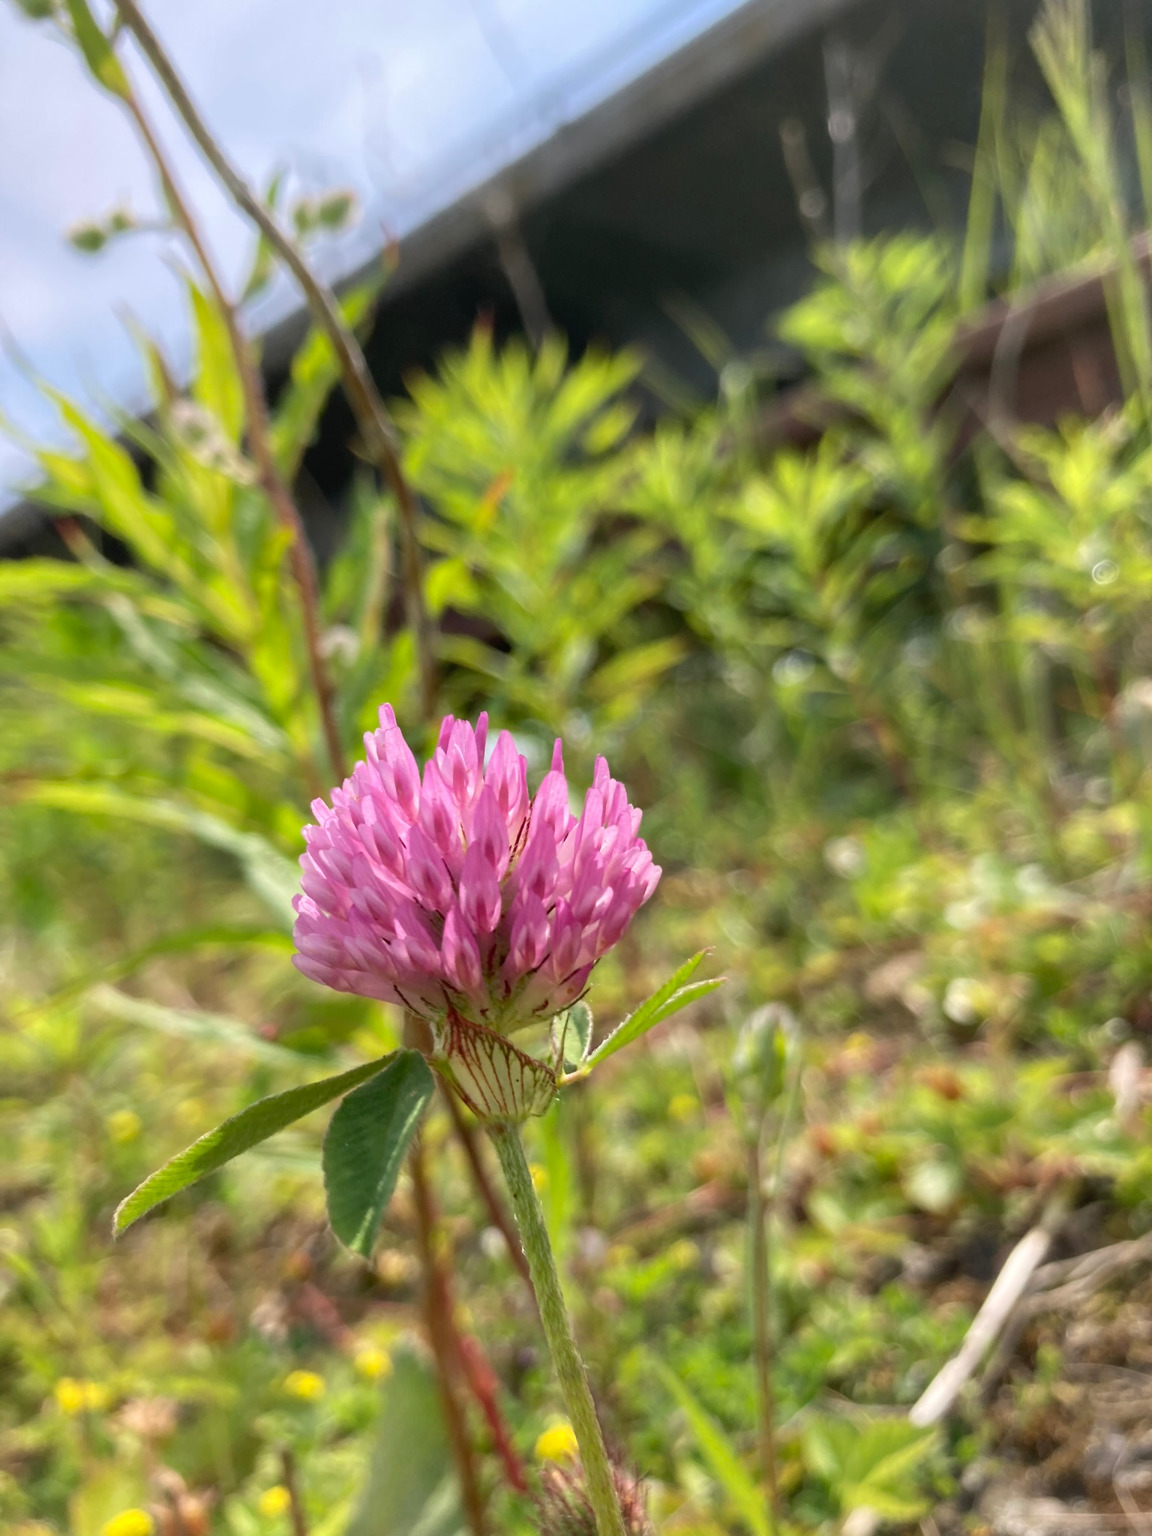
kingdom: Plantae
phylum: Tracheophyta
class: Magnoliopsida
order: Fabales
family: Fabaceae
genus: Trifolium
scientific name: Trifolium pratense
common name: Rød-kløver
